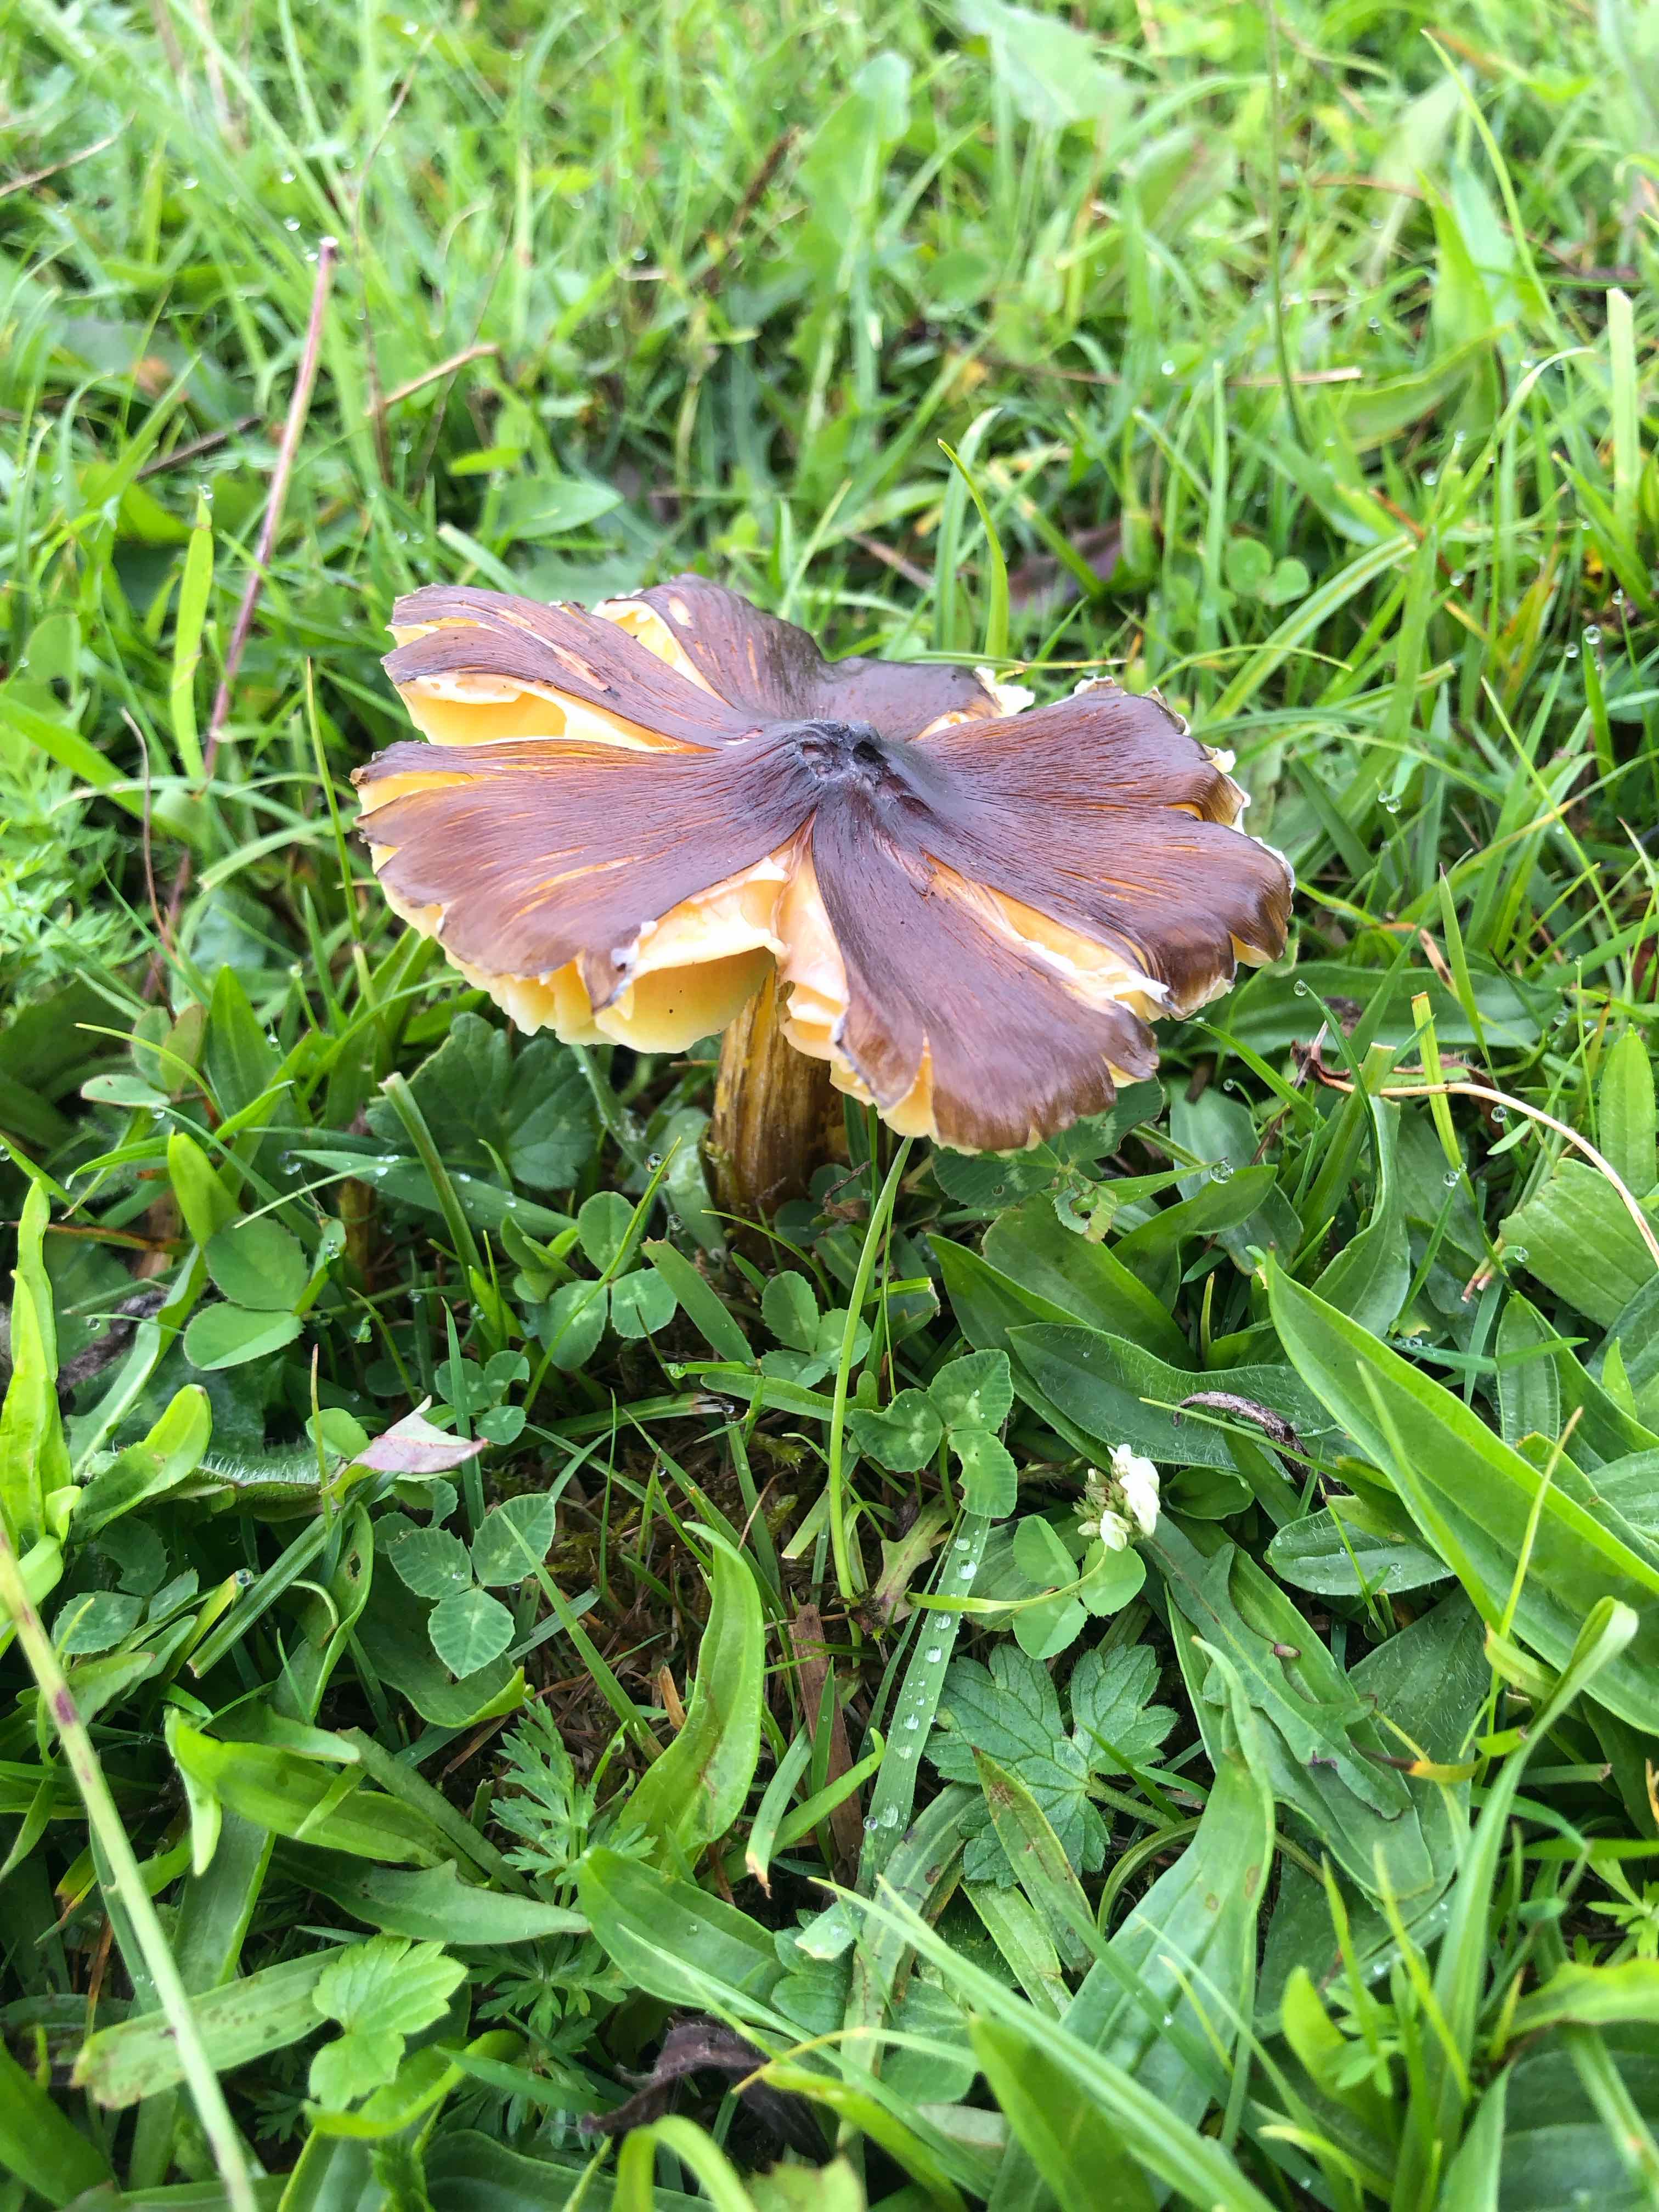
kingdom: Fungi
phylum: Basidiomycota
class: Agaricomycetes
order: Agaricales
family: Hygrophoraceae
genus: Hygrocybe
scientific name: Hygrocybe spadicea
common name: daddelbrun vokshat
